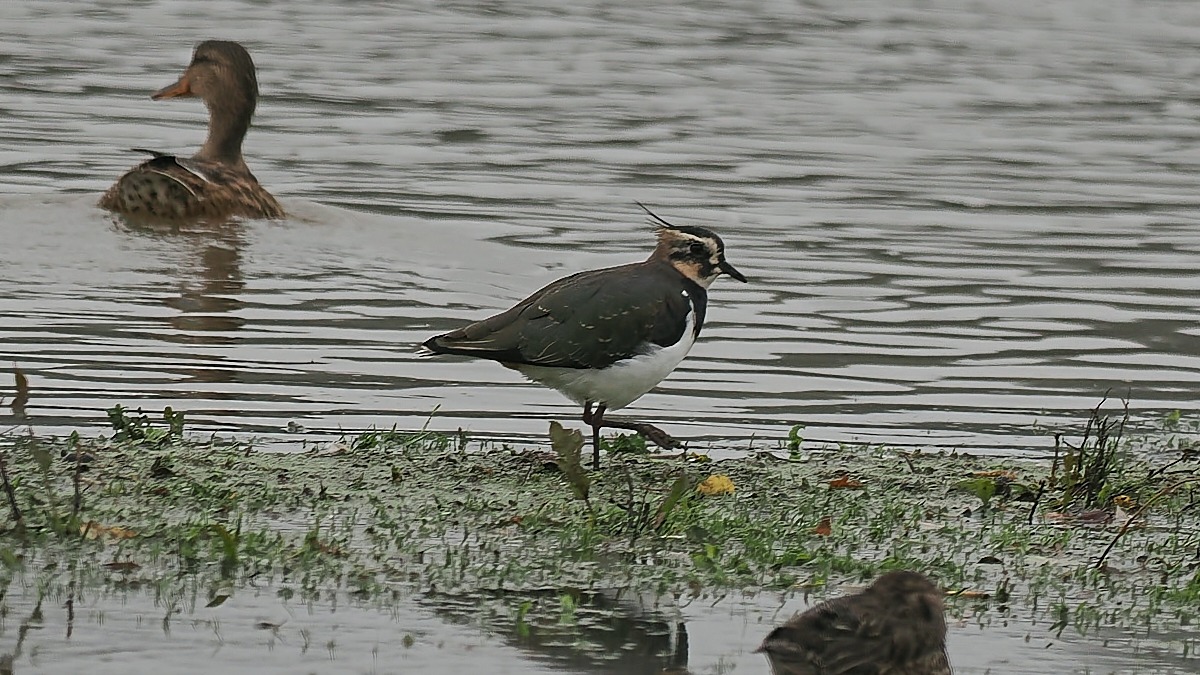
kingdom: Animalia
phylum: Chordata
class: Aves
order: Charadriiformes
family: Charadriidae
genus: Vanellus
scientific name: Vanellus vanellus
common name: Vibe
